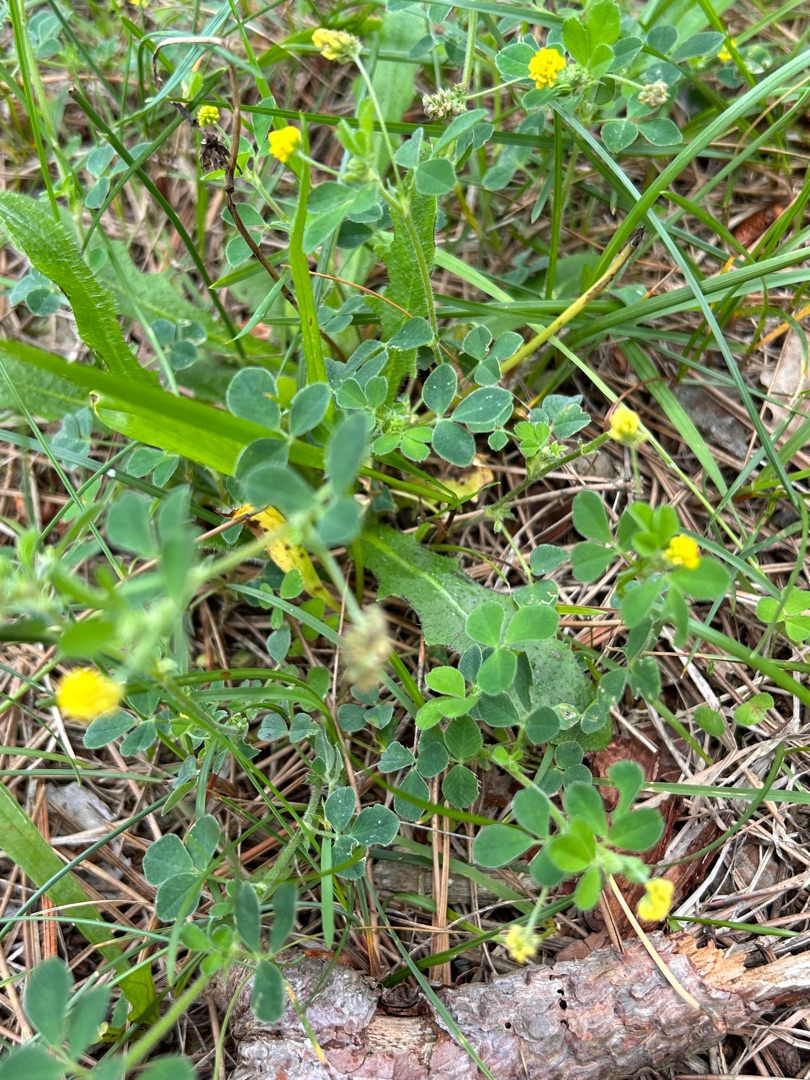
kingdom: Plantae
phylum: Tracheophyta
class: Magnoliopsida
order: Fabales
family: Fabaceae
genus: Medicago
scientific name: Medicago lupulina
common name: Humle-sneglebælg
